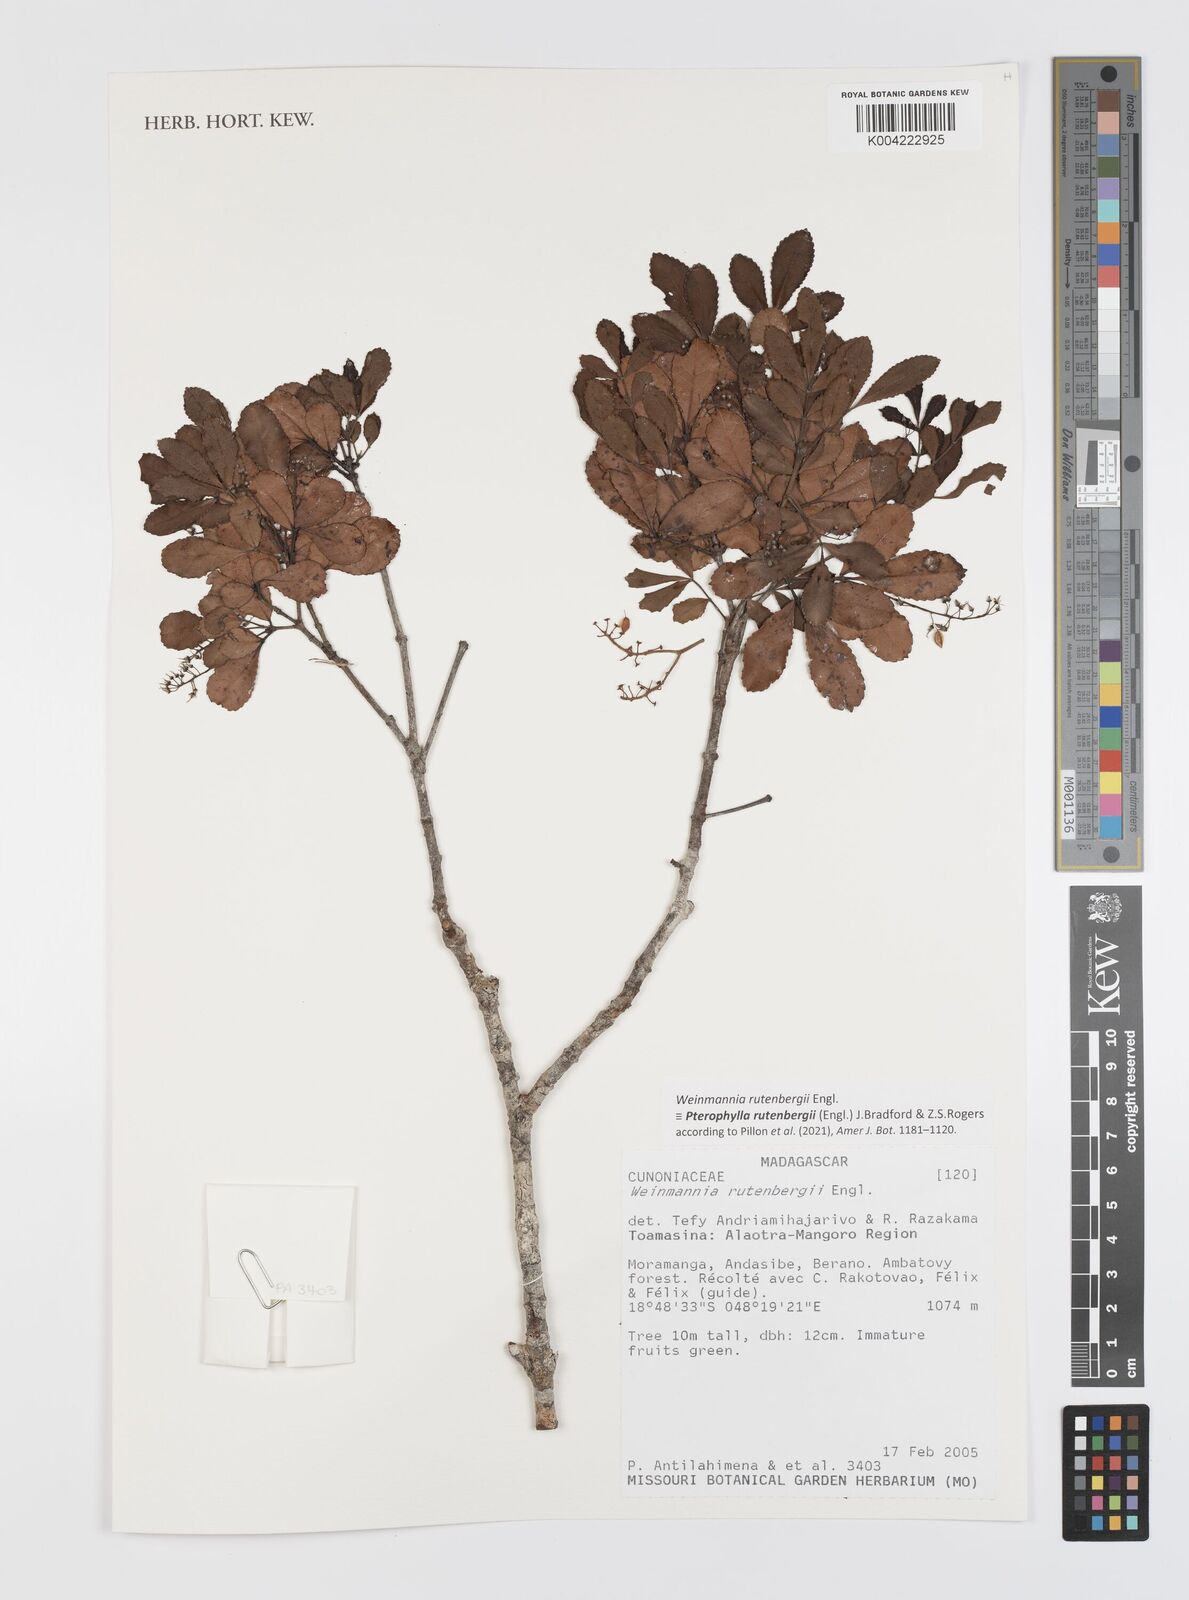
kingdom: Plantae
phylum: Tracheophyta
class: Magnoliopsida
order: Oxalidales
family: Cunoniaceae
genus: Pterophylla
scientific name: Pterophylla rutenbergii
